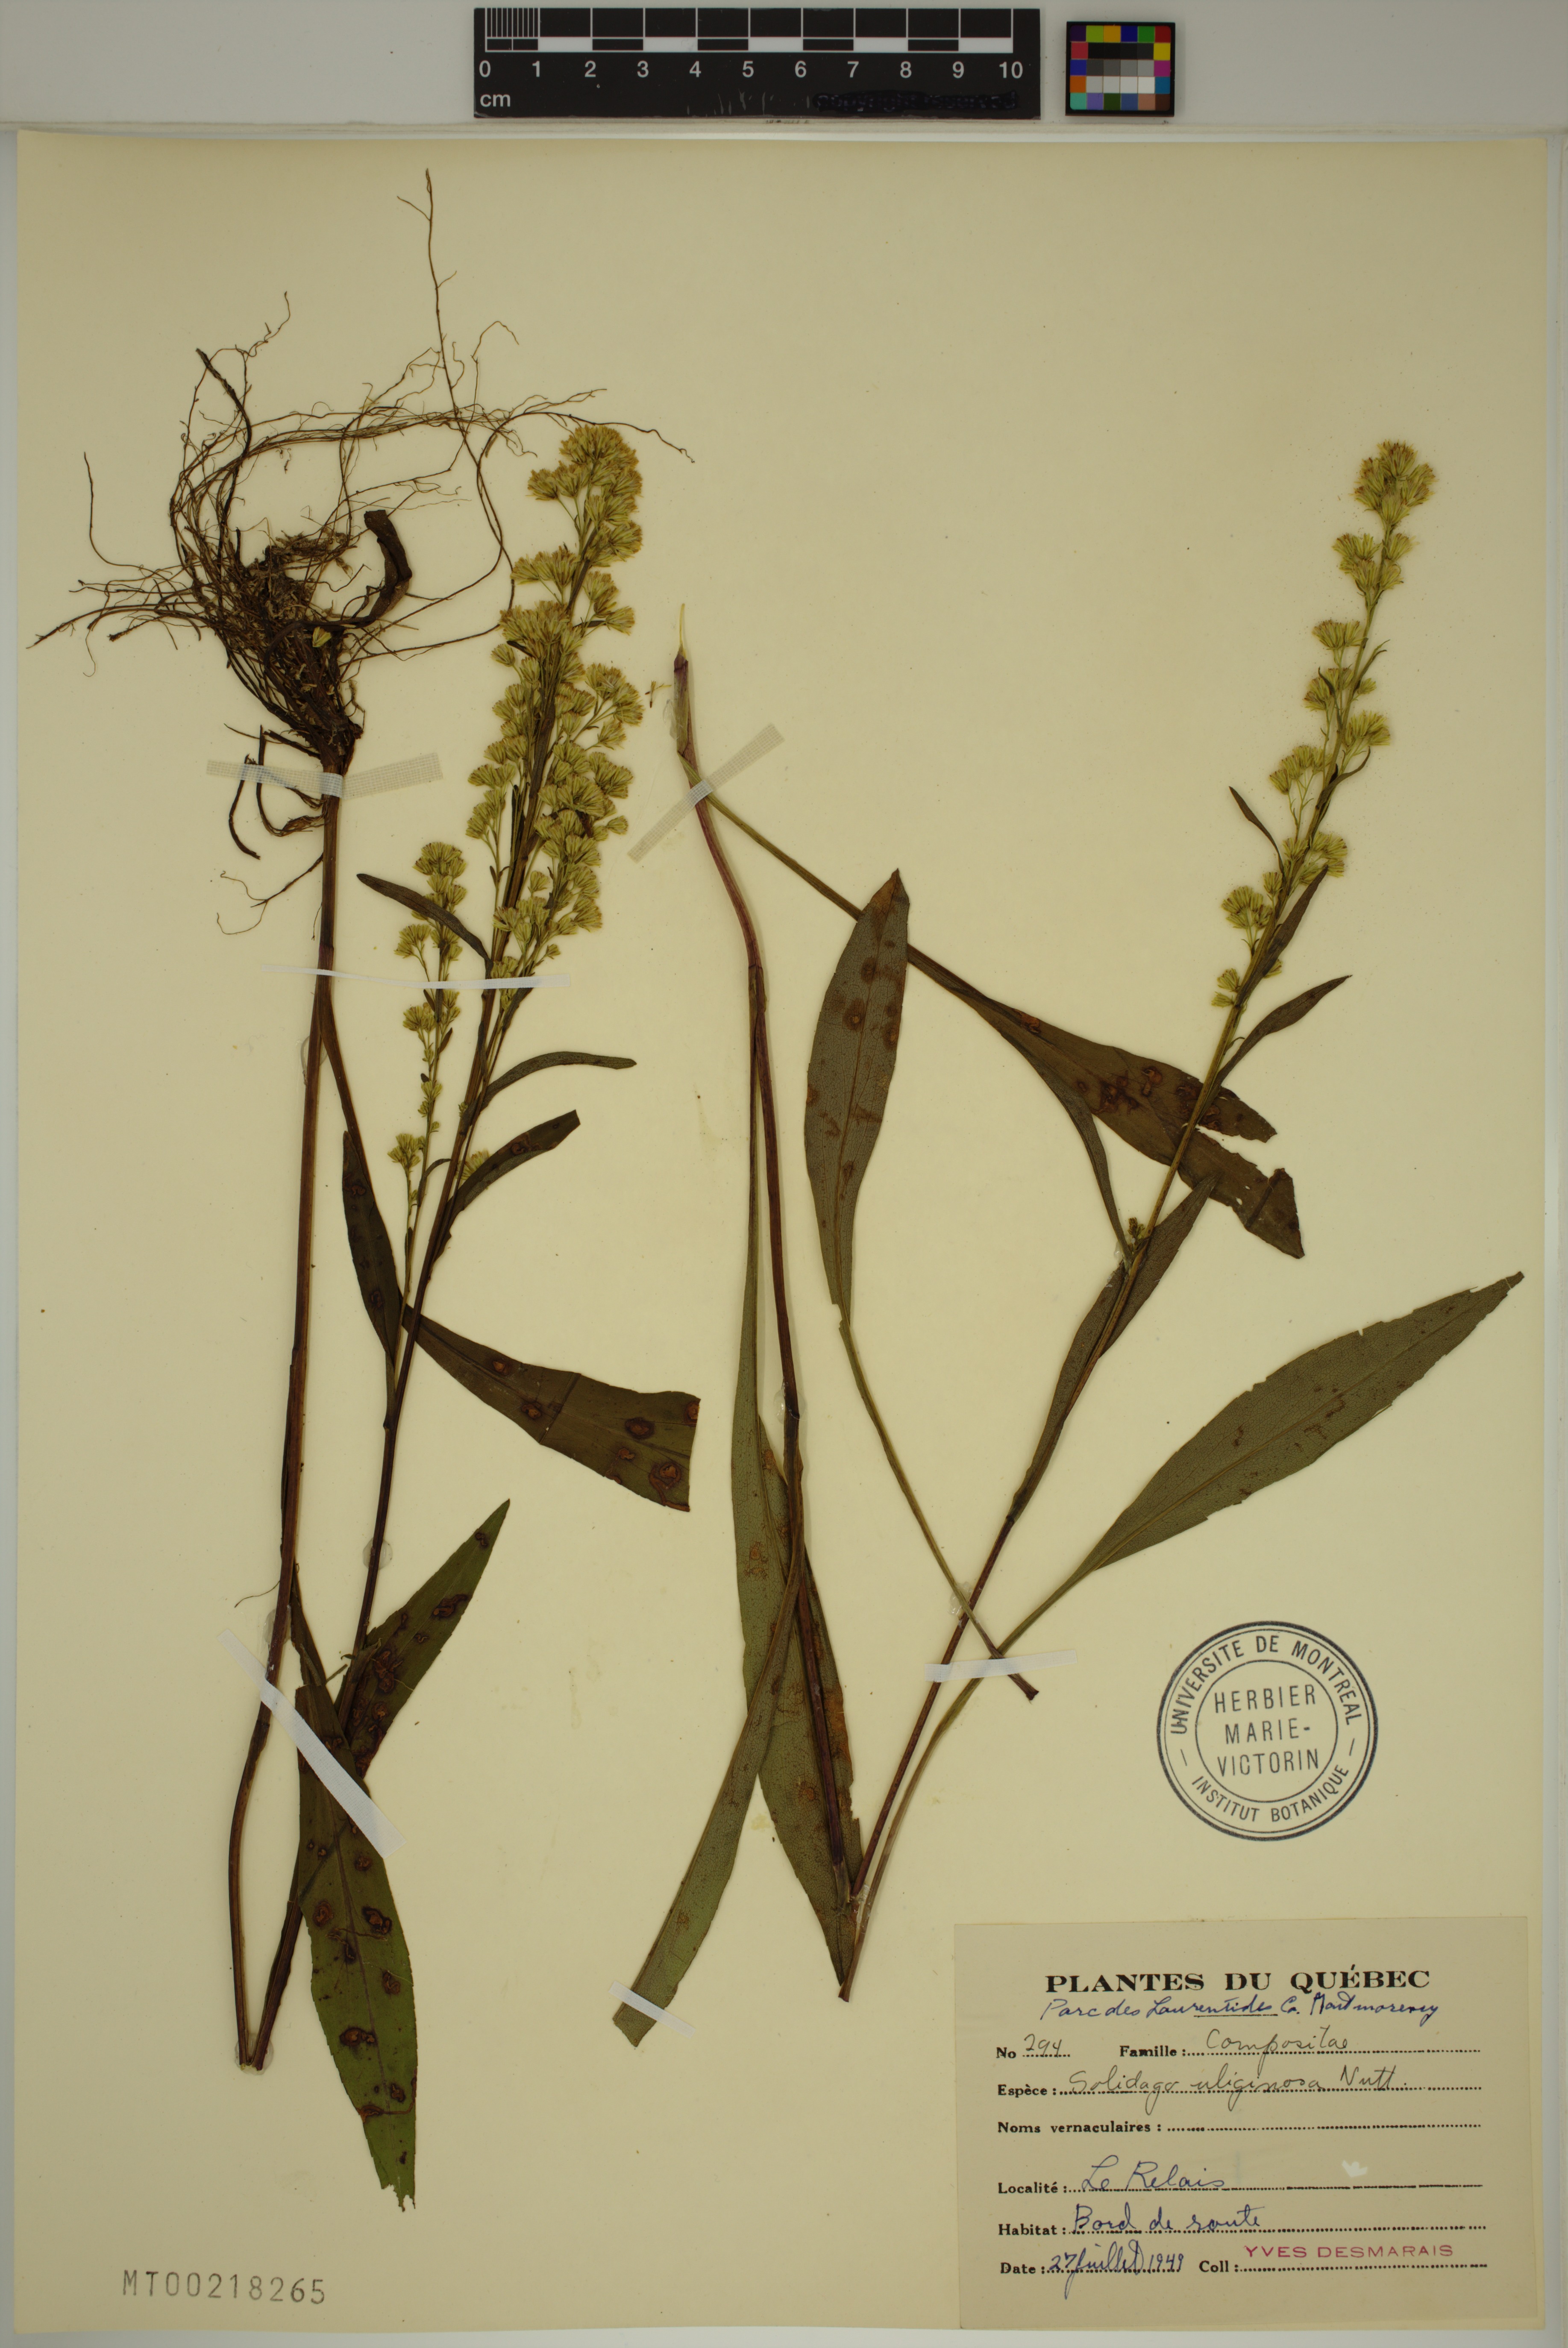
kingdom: Plantae
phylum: Tracheophyta
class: Magnoliopsida
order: Asterales
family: Asteraceae
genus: Solidago
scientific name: Solidago uliginosa
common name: Bog goldenrod
